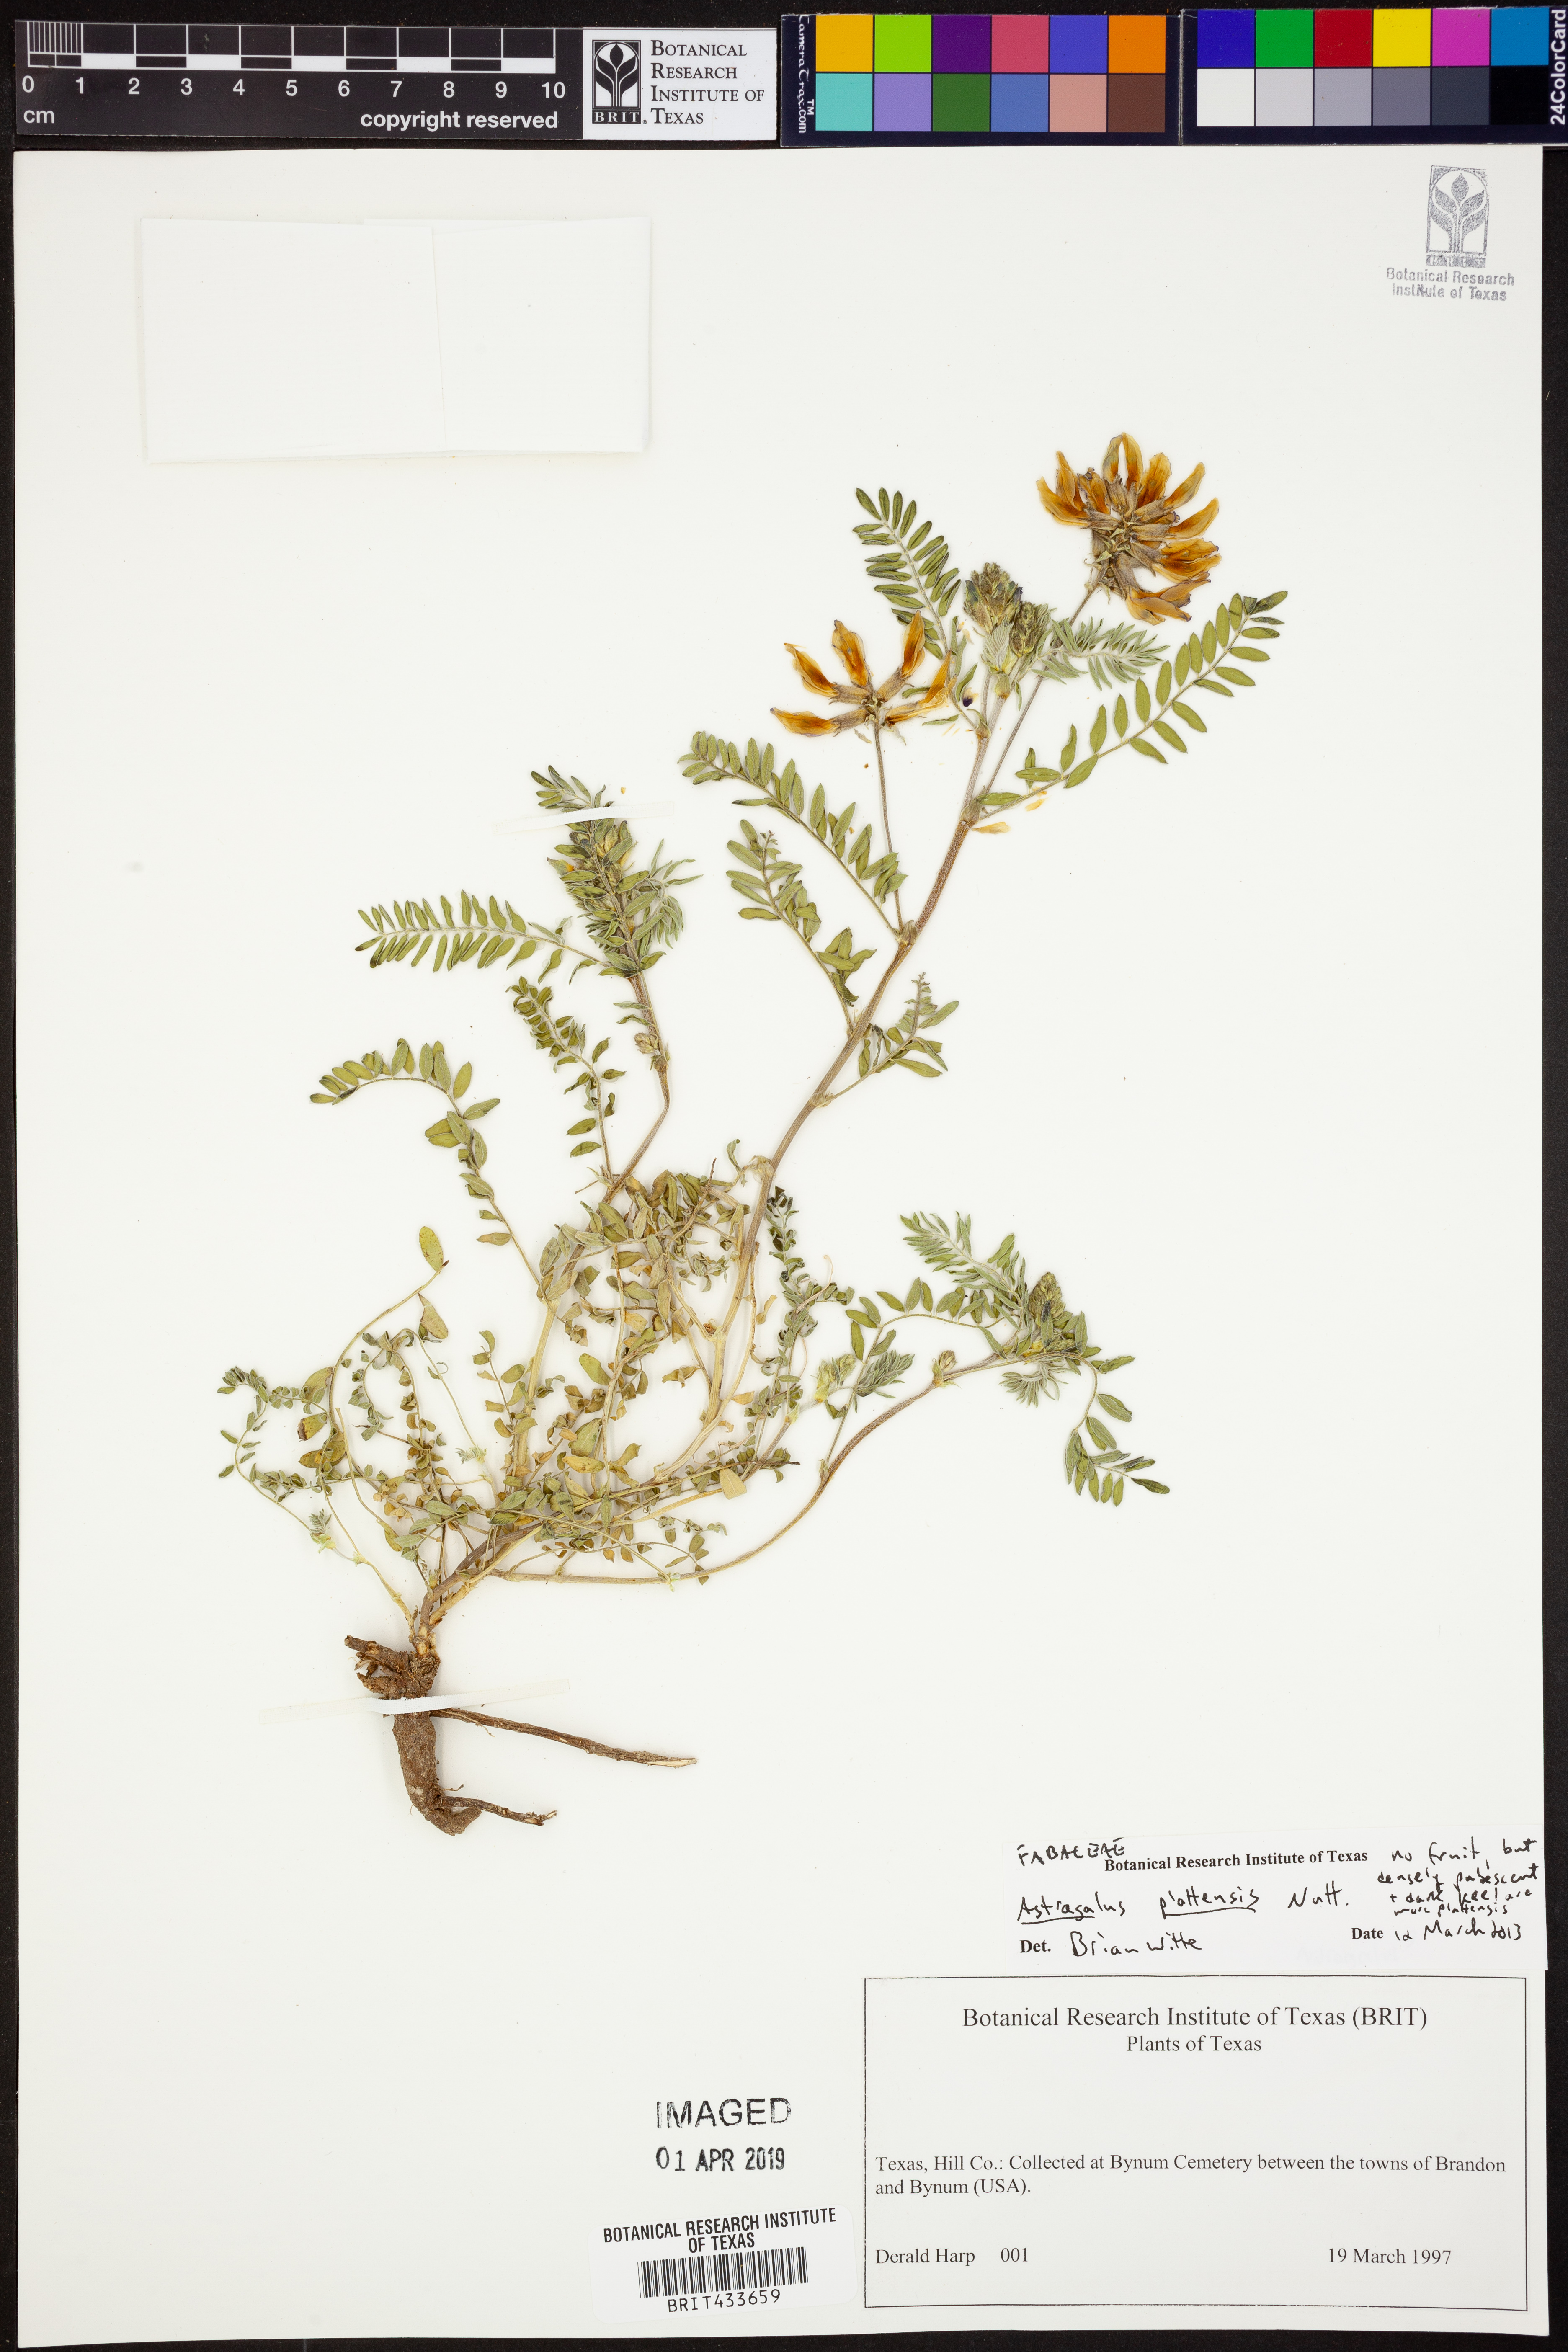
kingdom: Plantae
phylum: Tracheophyta
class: Magnoliopsida
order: Fabales
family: Fabaceae
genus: Astragalus
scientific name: Astragalus plattensis
